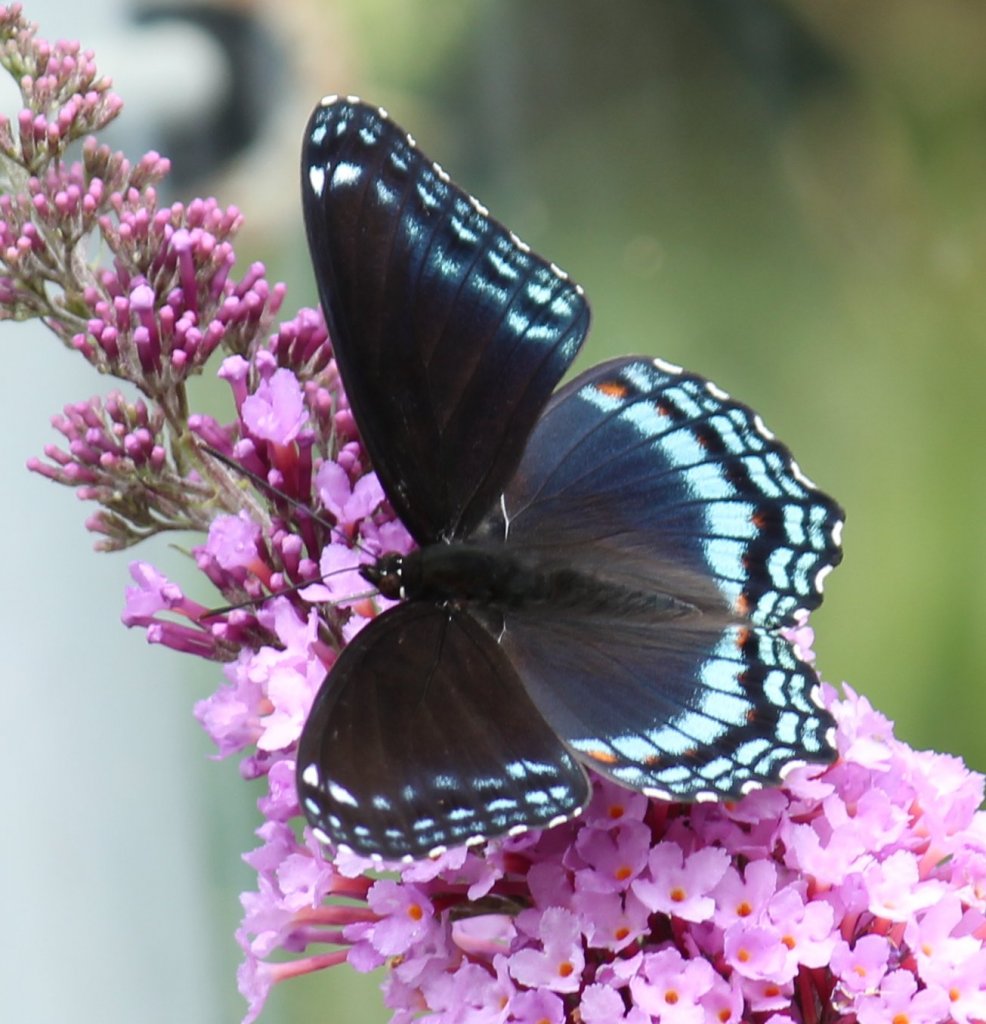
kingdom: Animalia
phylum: Arthropoda
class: Insecta
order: Lepidoptera
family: Nymphalidae
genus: Limenitis
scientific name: Limenitis astyanax
